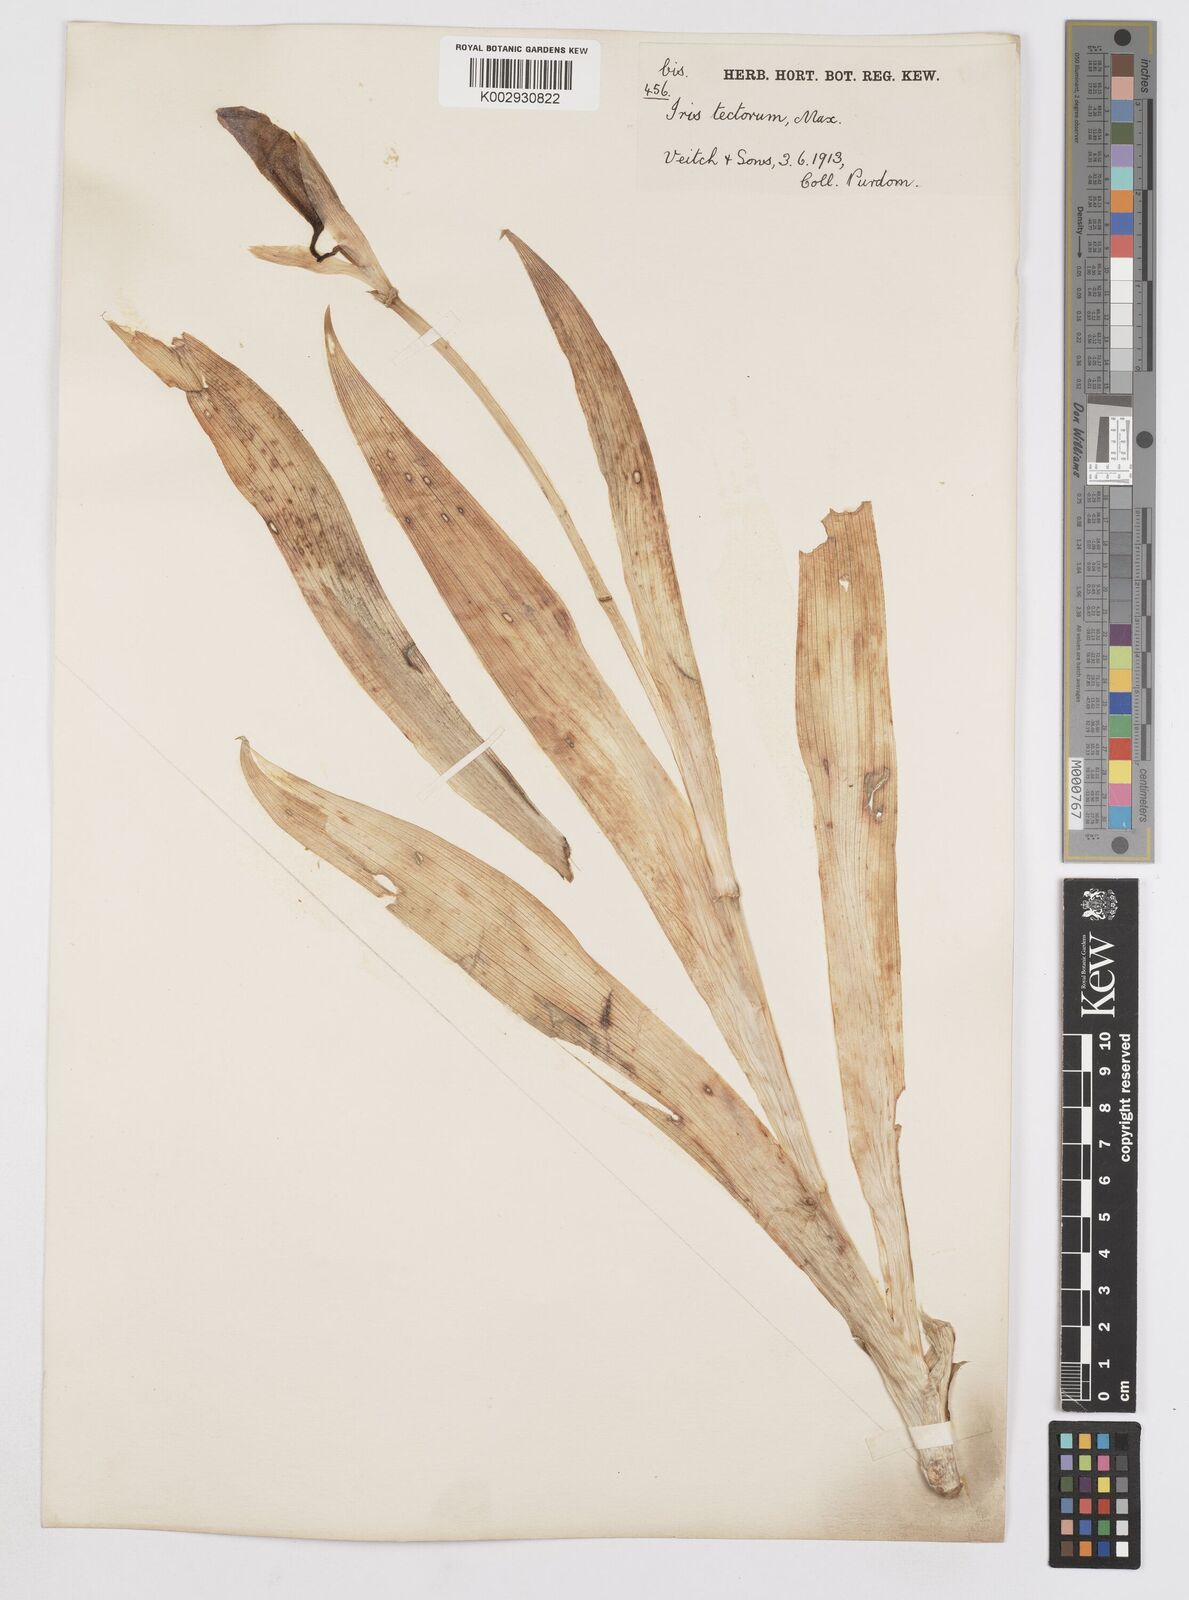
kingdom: Plantae
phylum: Tracheophyta
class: Liliopsida
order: Asparagales
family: Iridaceae
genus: Iris
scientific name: Iris tectorum
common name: Wall iris
